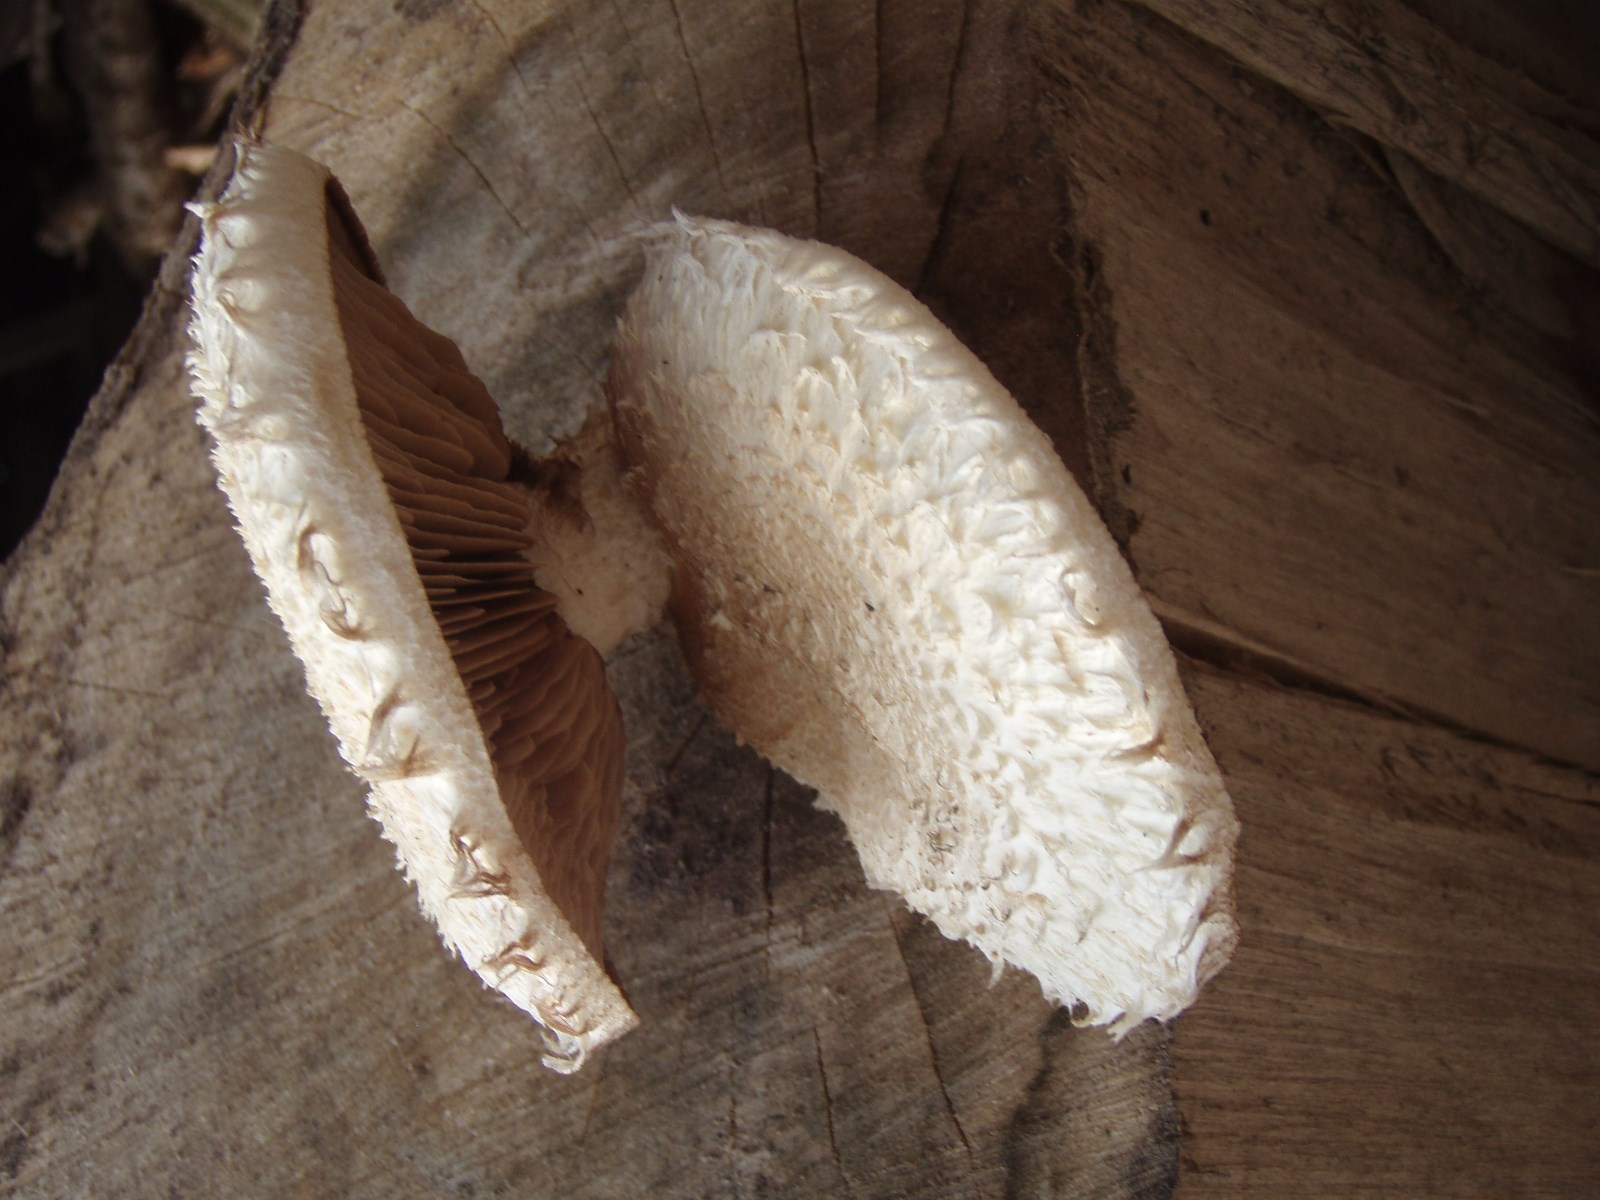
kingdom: Fungi
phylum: Basidiomycota
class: Agaricomycetes
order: Agaricales
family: Strophariaceae
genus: Pholiota
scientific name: Pholiota populnea
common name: poppel-kæmpeskælhat
